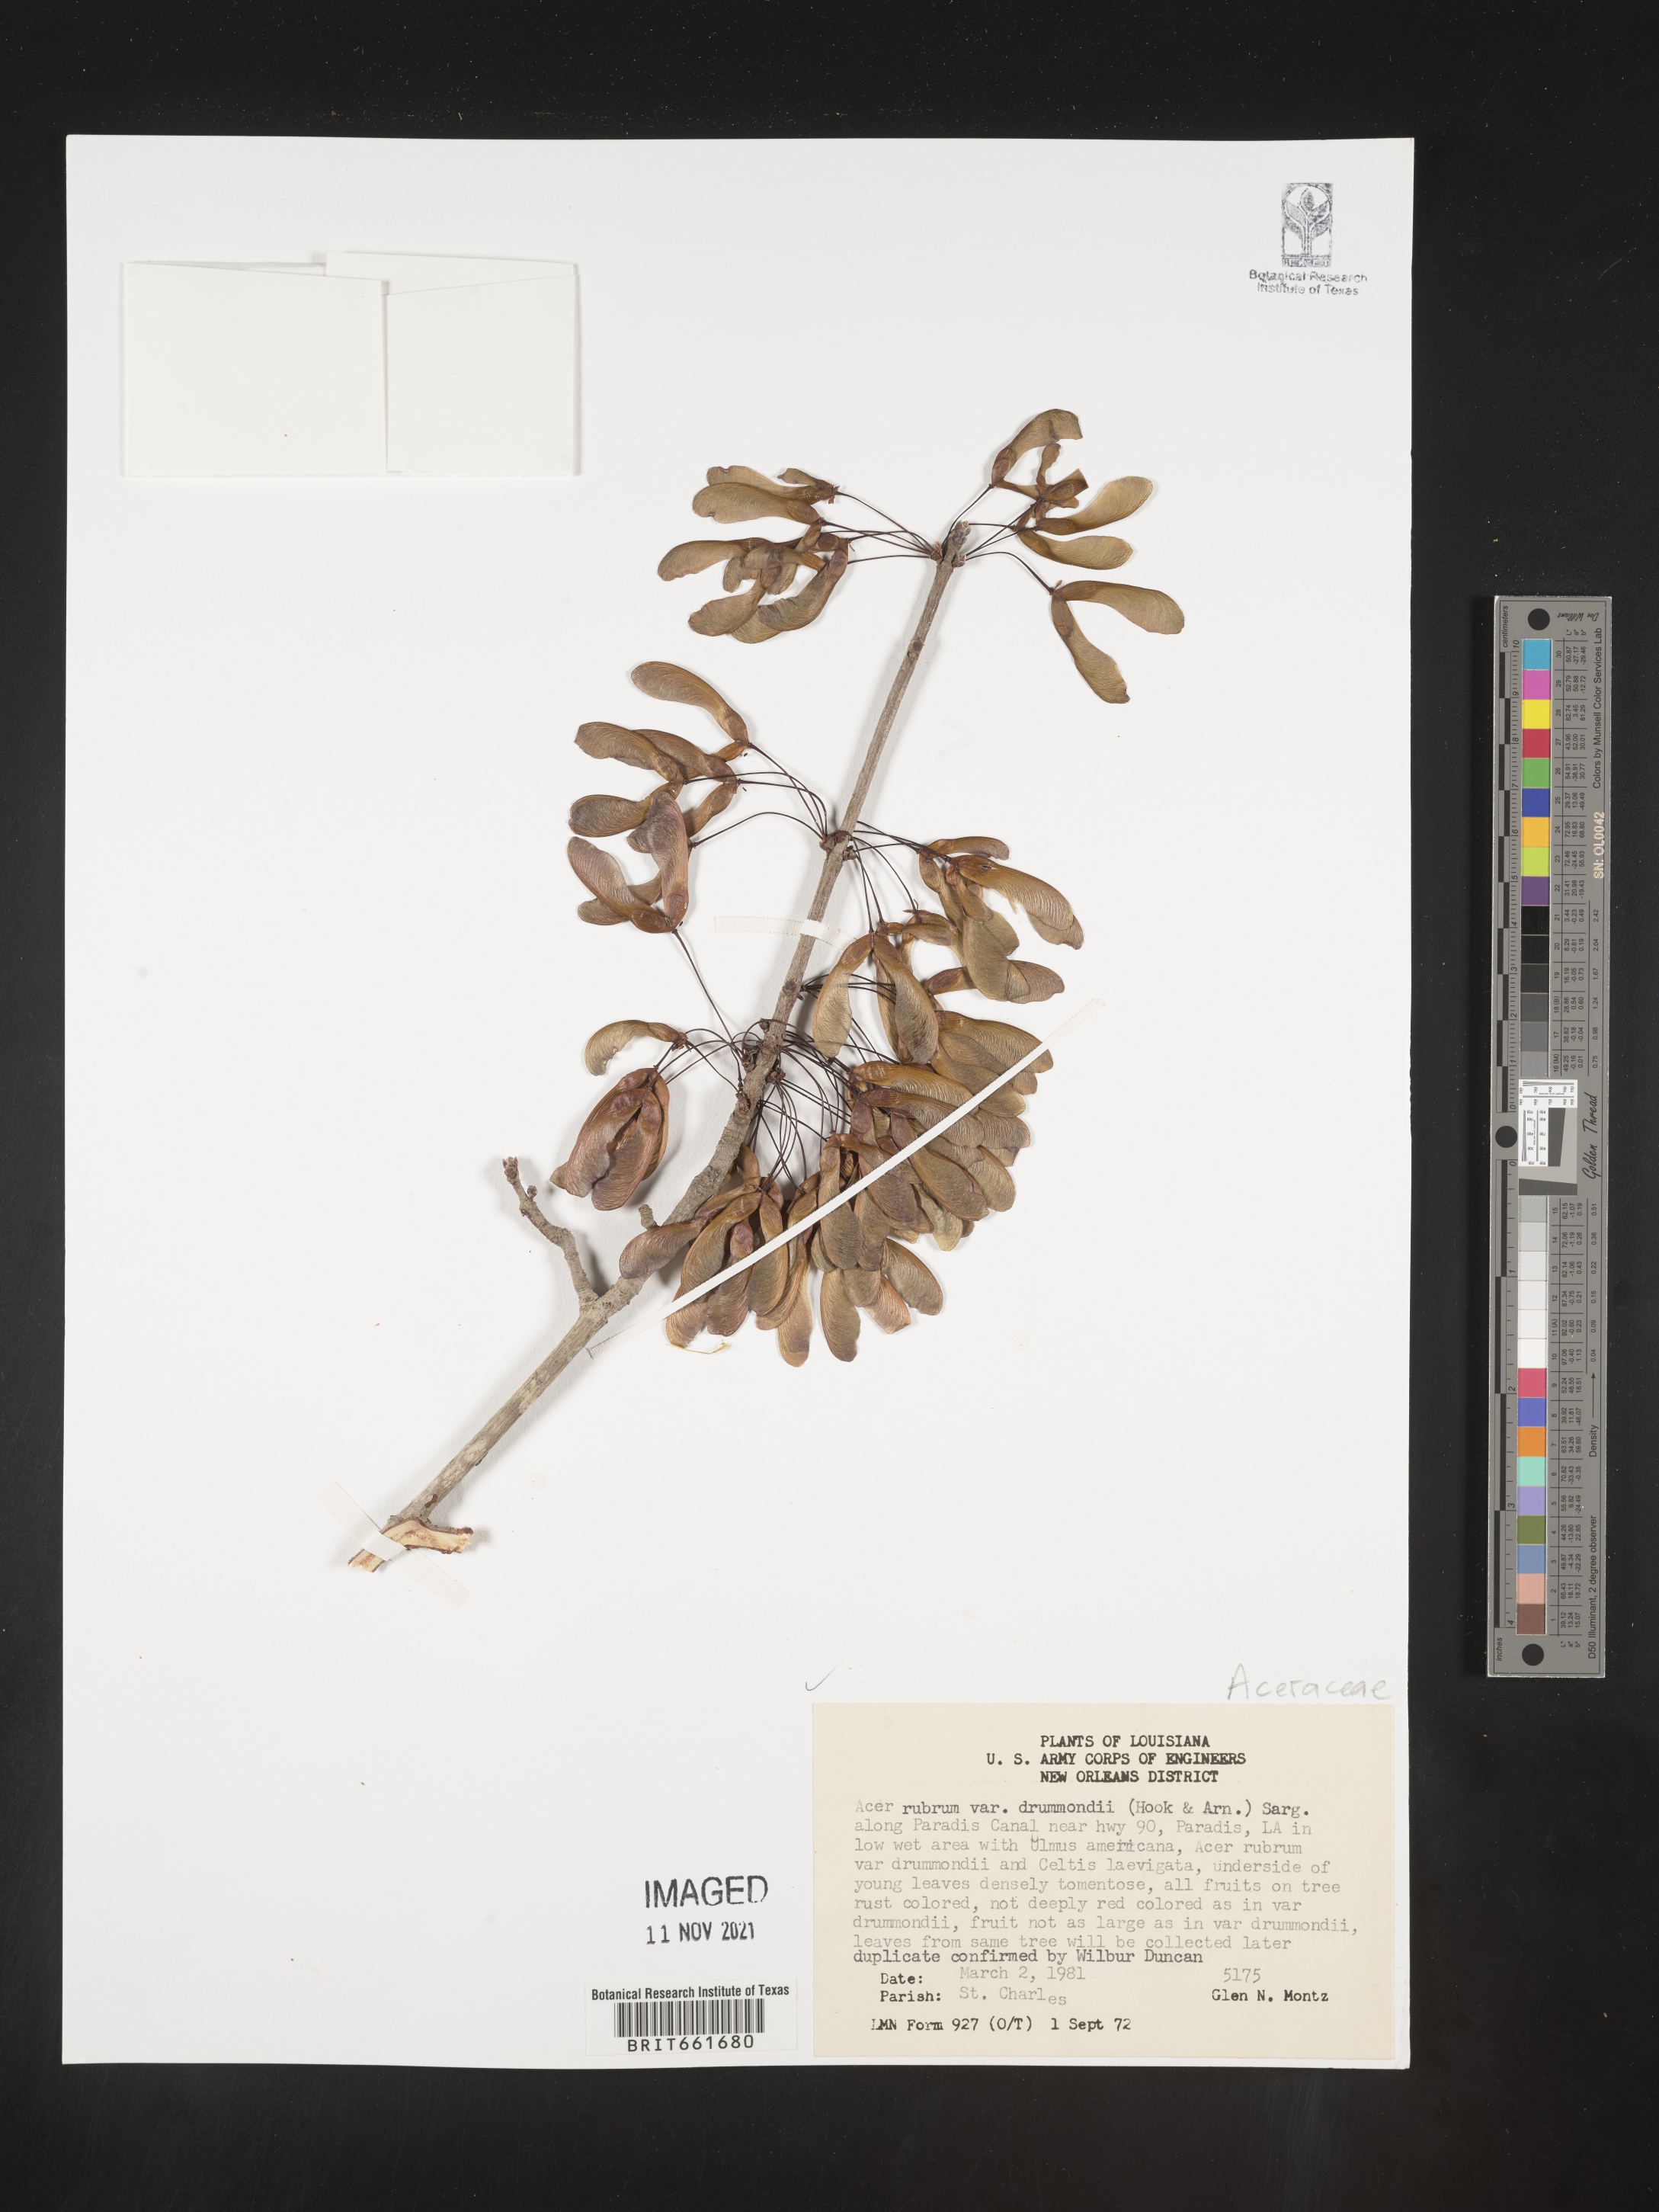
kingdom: Plantae
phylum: Tracheophyta
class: Magnoliopsida
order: Sapindales
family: Sapindaceae
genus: Acer
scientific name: Acer rubrum
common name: Red maple
